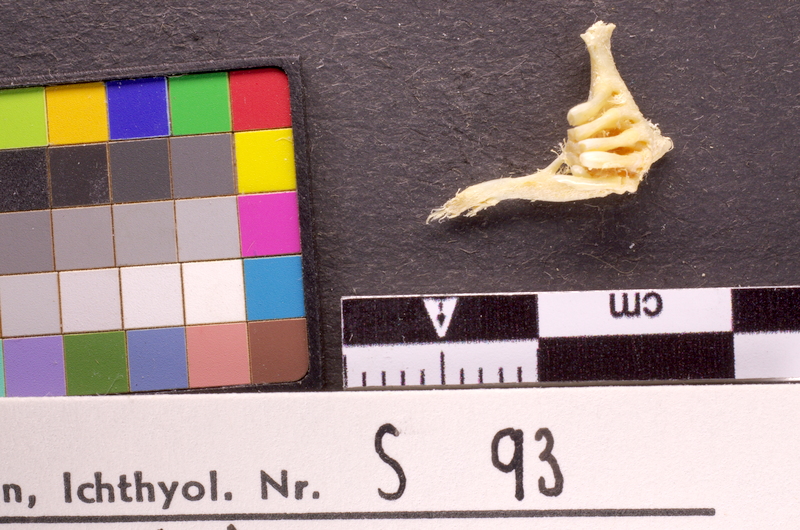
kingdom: Animalia
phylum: Chordata
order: Cypriniformes
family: Cyprinidae
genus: Romanogobio
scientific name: Romanogobio uranoscopus
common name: Danube gudgeon
